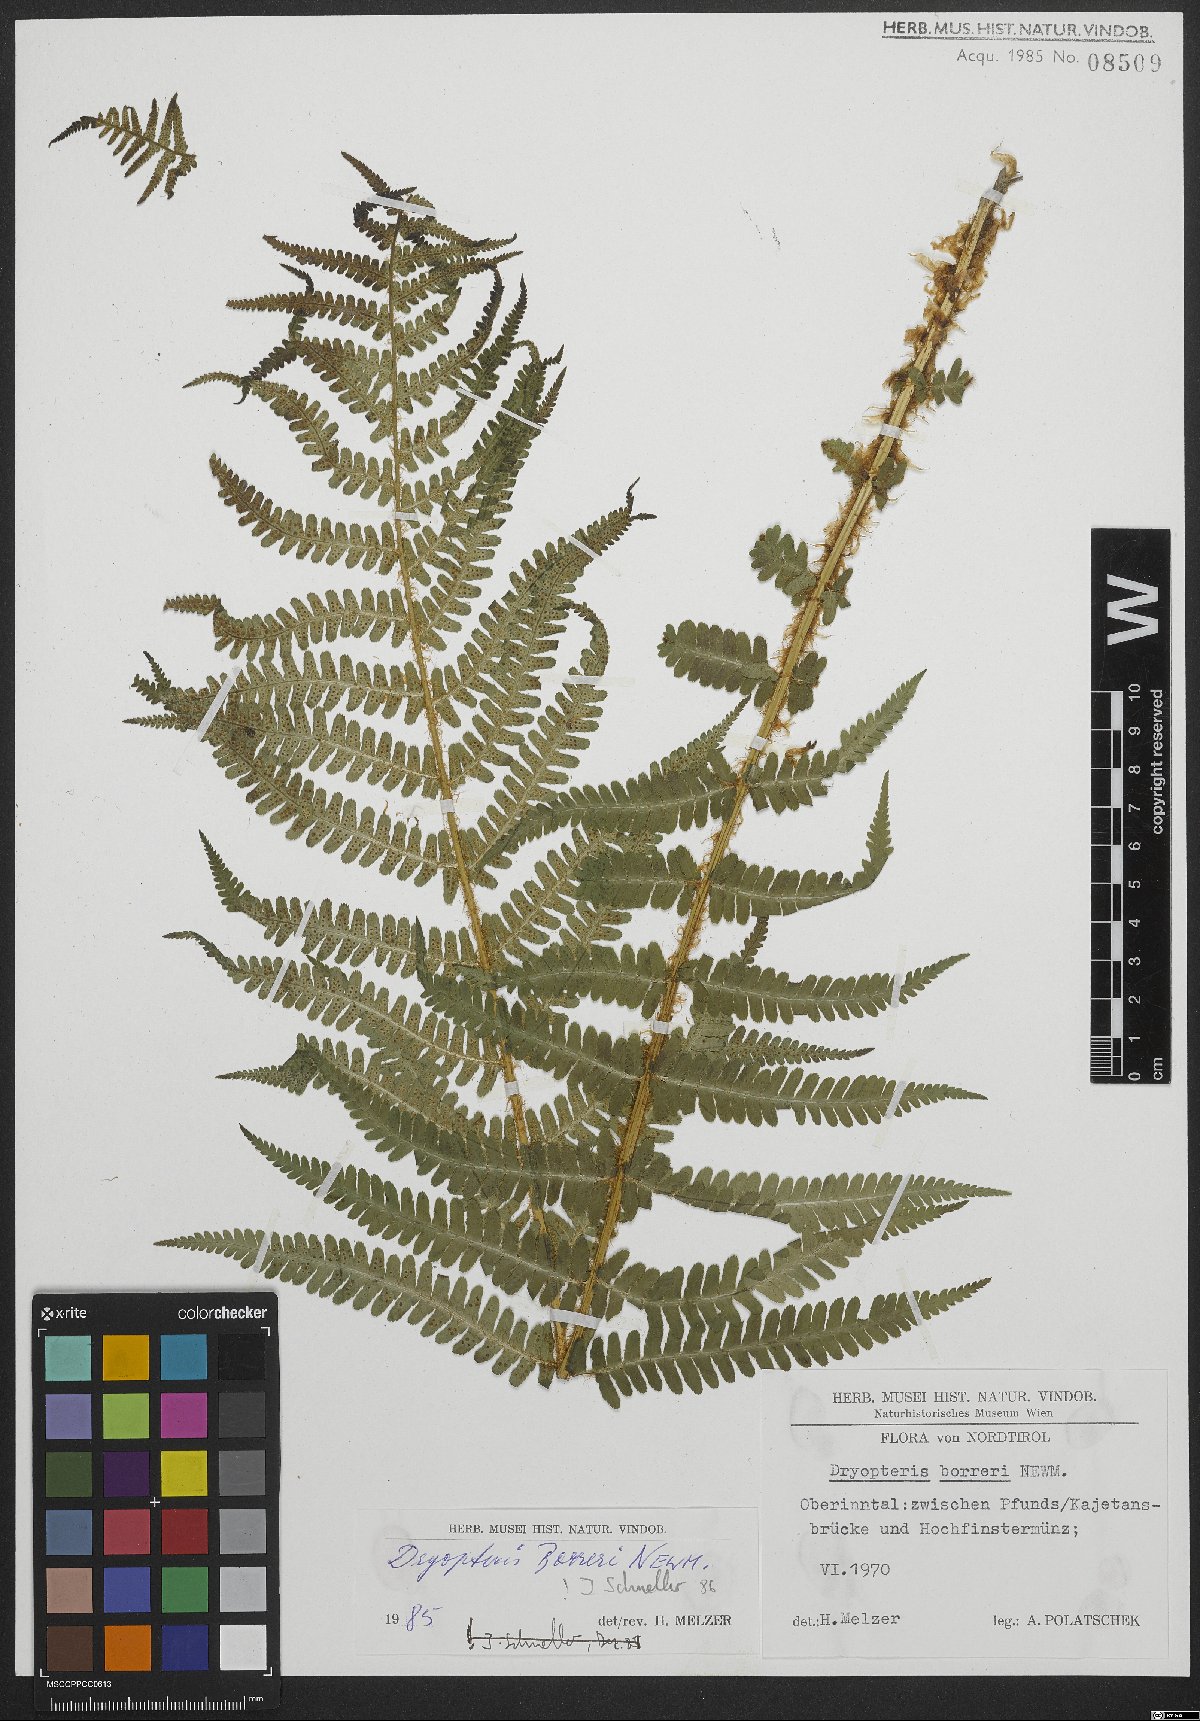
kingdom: Plantae
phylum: Tracheophyta
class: Polypodiopsida
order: Polypodiales
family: Dryopteridaceae
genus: Dryopteris
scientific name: Dryopteris borreri
